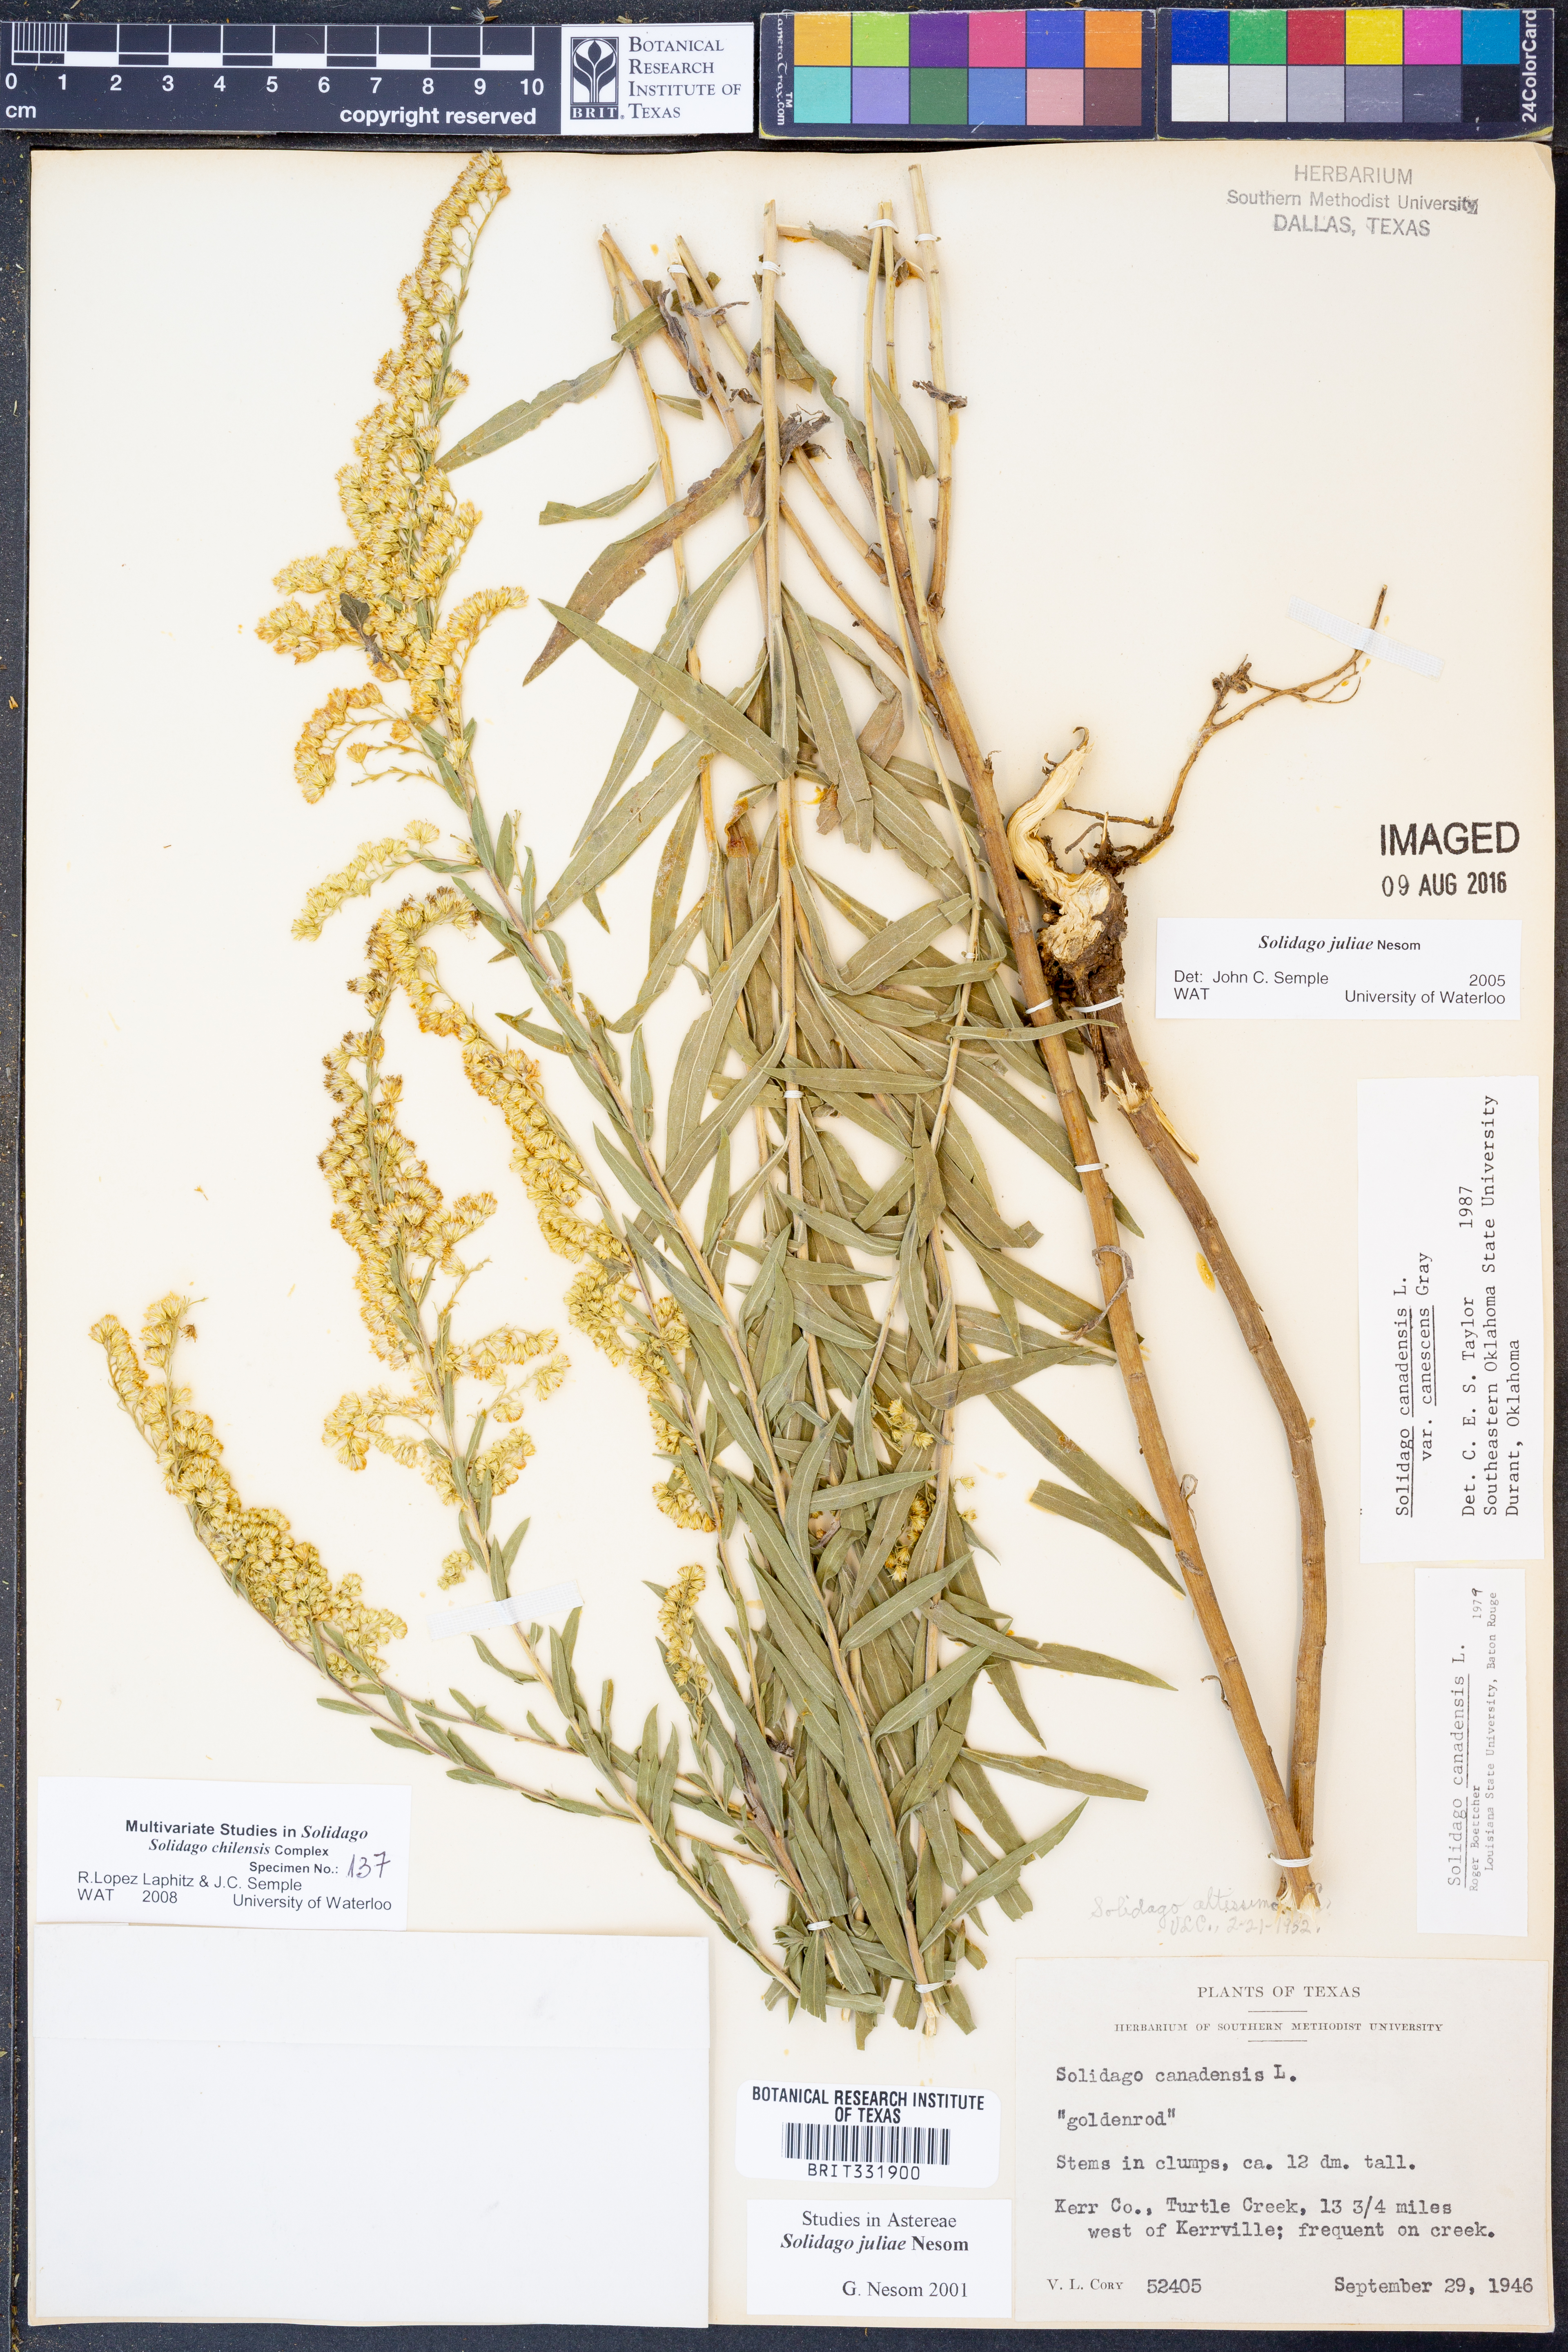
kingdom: Plantae
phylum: Tracheophyta
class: Magnoliopsida
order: Asterales
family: Asteraceae
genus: Solidago
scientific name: Solidago juliae
